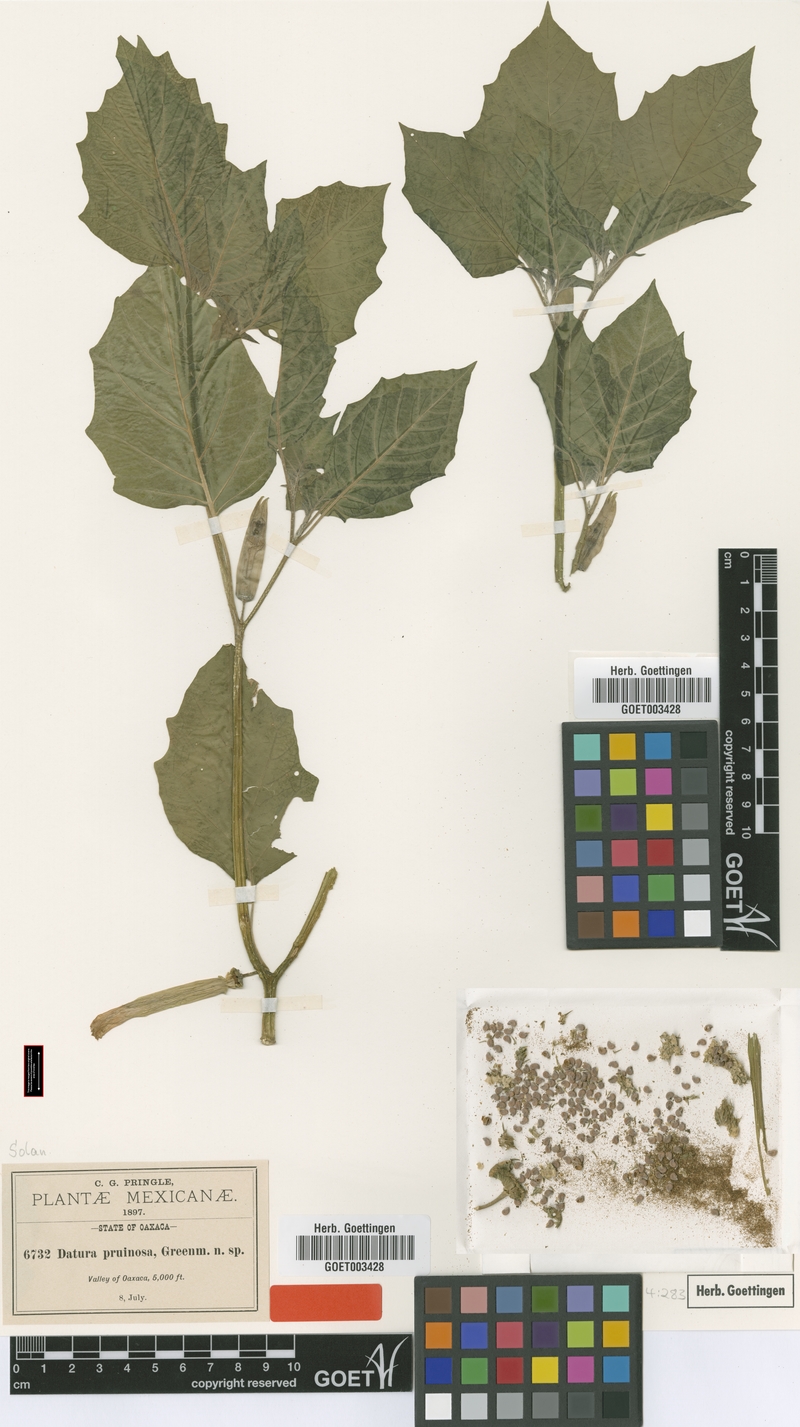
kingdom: Plantae
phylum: Tracheophyta
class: Magnoliopsida
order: Solanales
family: Solanaceae
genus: Datura
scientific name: Datura pruinosa
